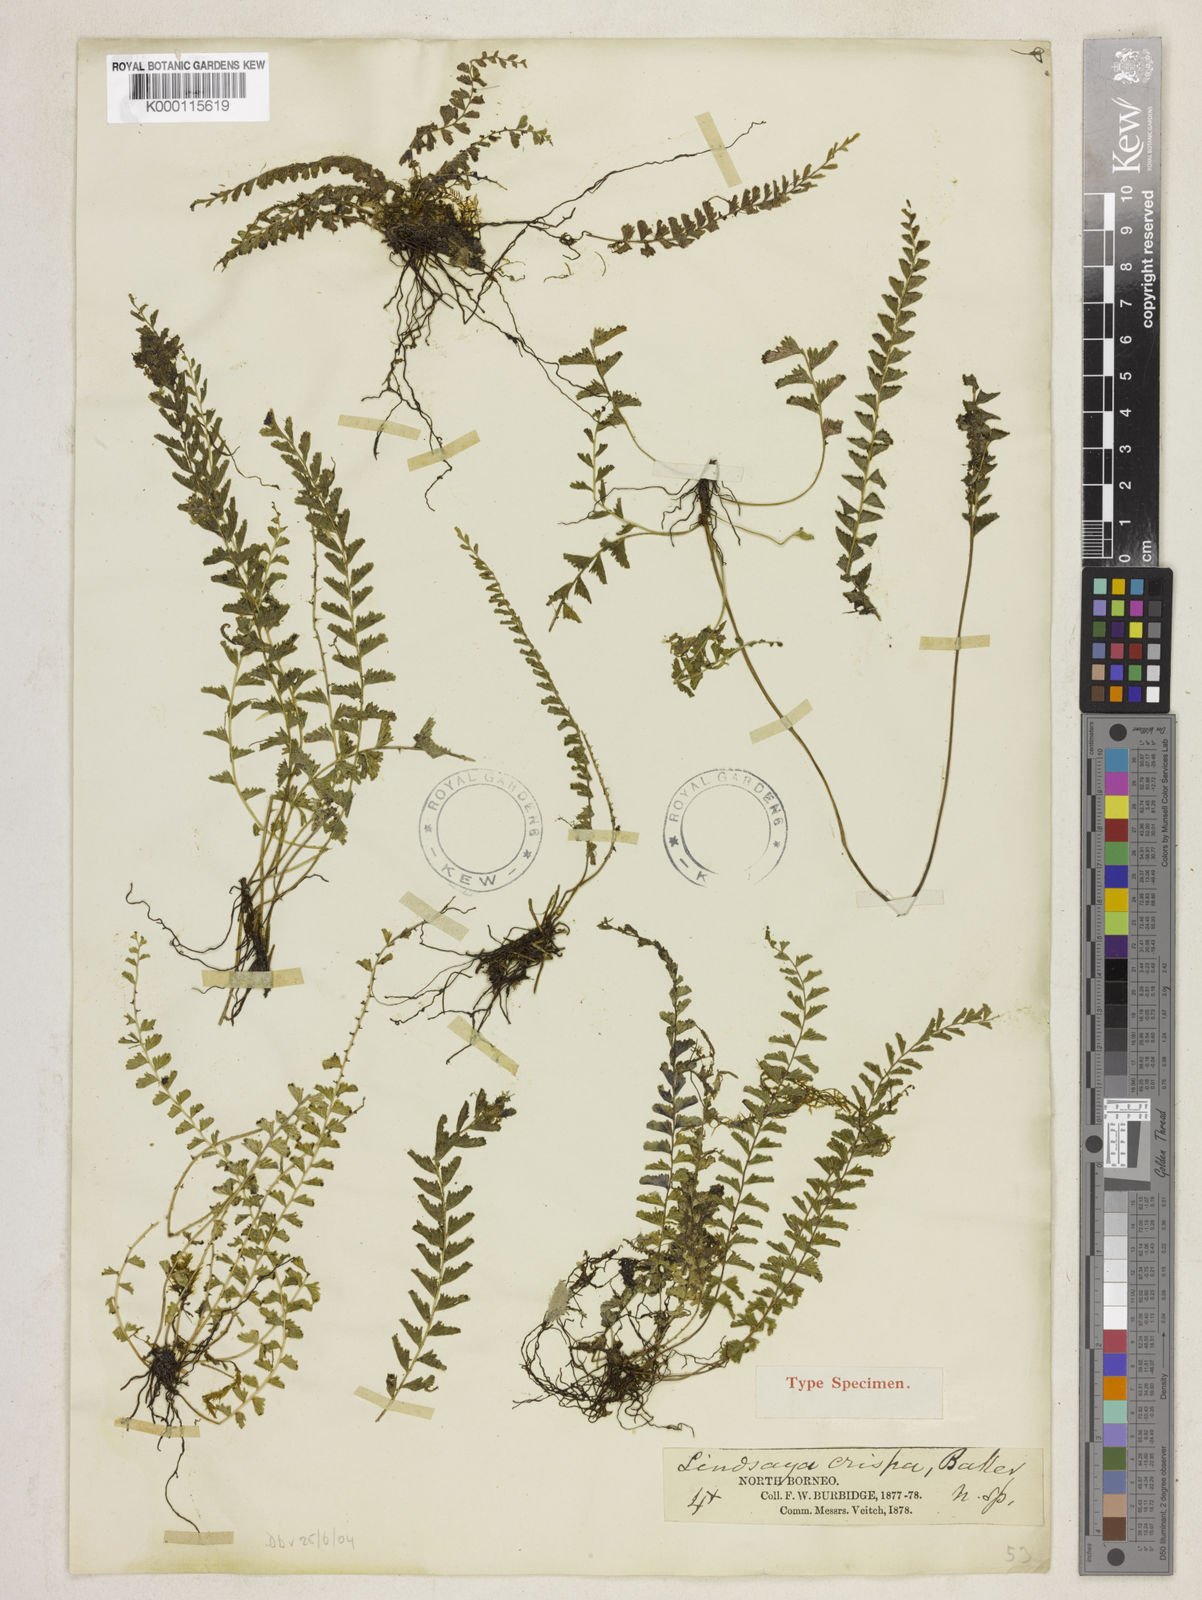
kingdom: Plantae
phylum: Tracheophyta
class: Polypodiopsida
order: Polypodiales
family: Lindsaeaceae
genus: Lindsaea
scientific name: Lindsaea crispa
